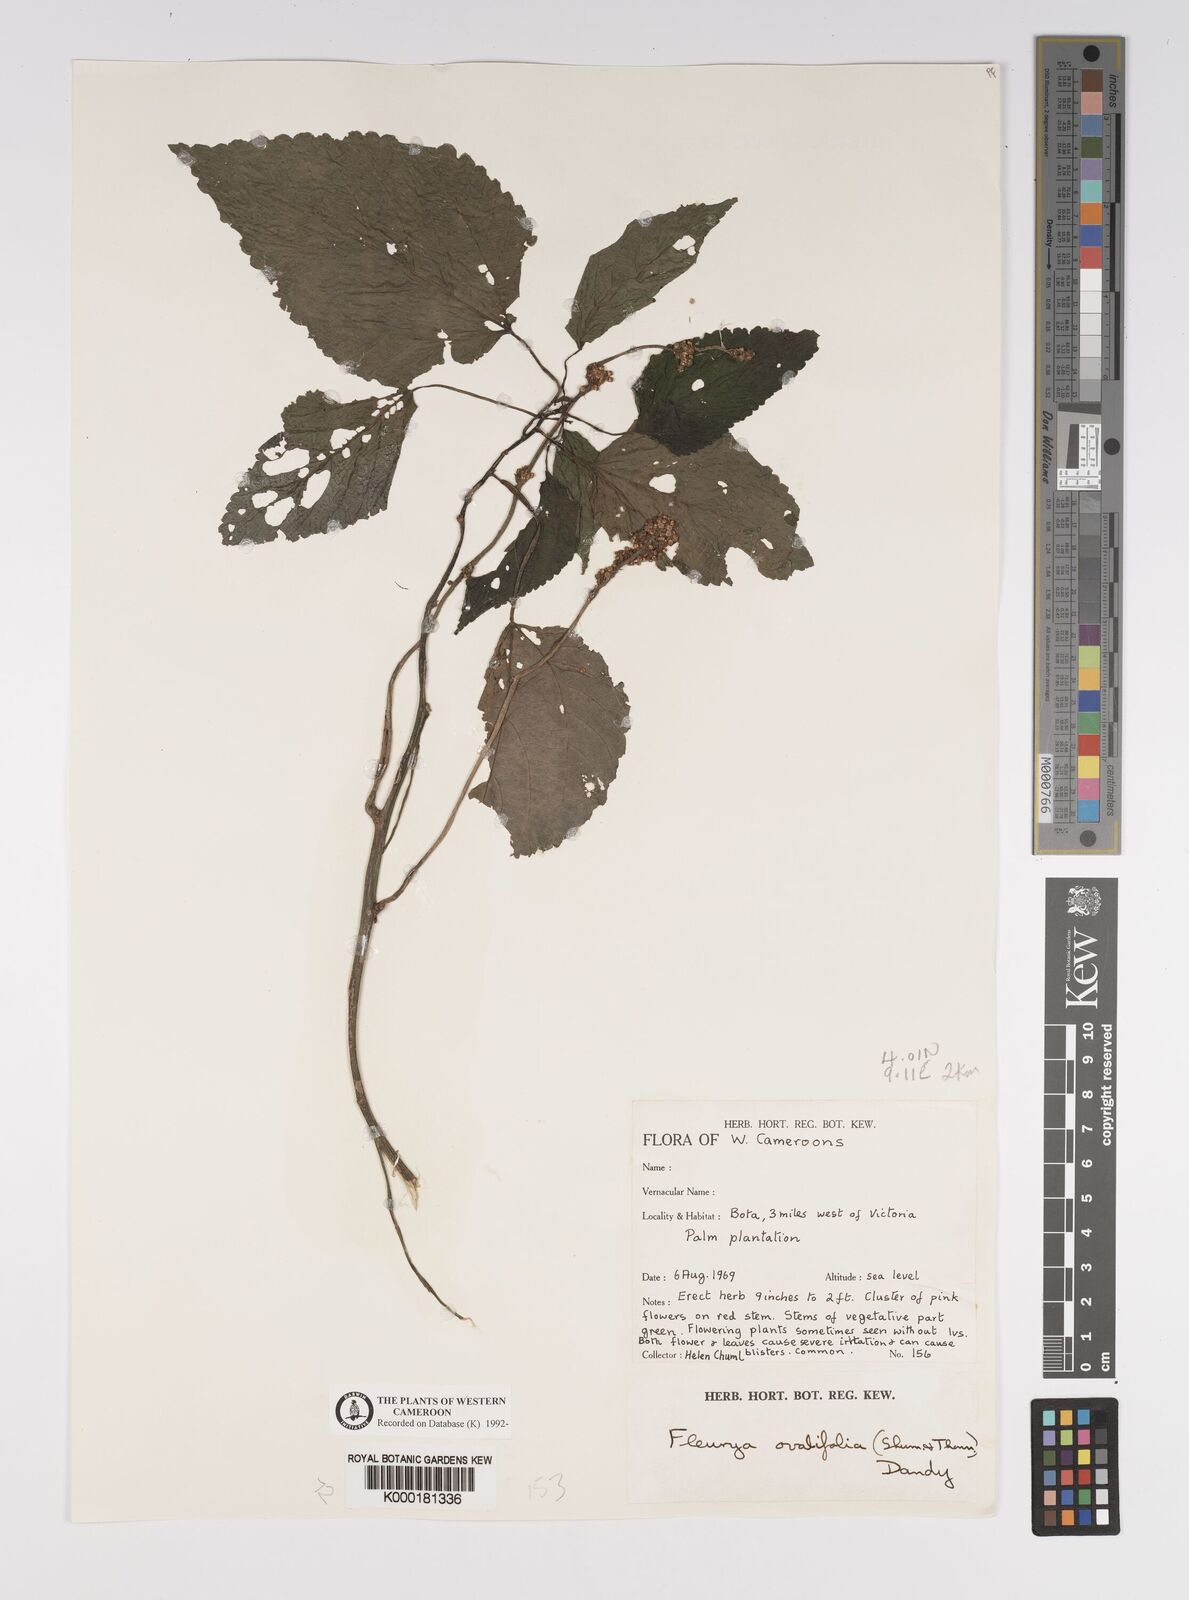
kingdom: Plantae
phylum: Tracheophyta
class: Magnoliopsida
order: Rosales
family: Urticaceae
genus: Laportea
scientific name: Laportea ovalifolia
